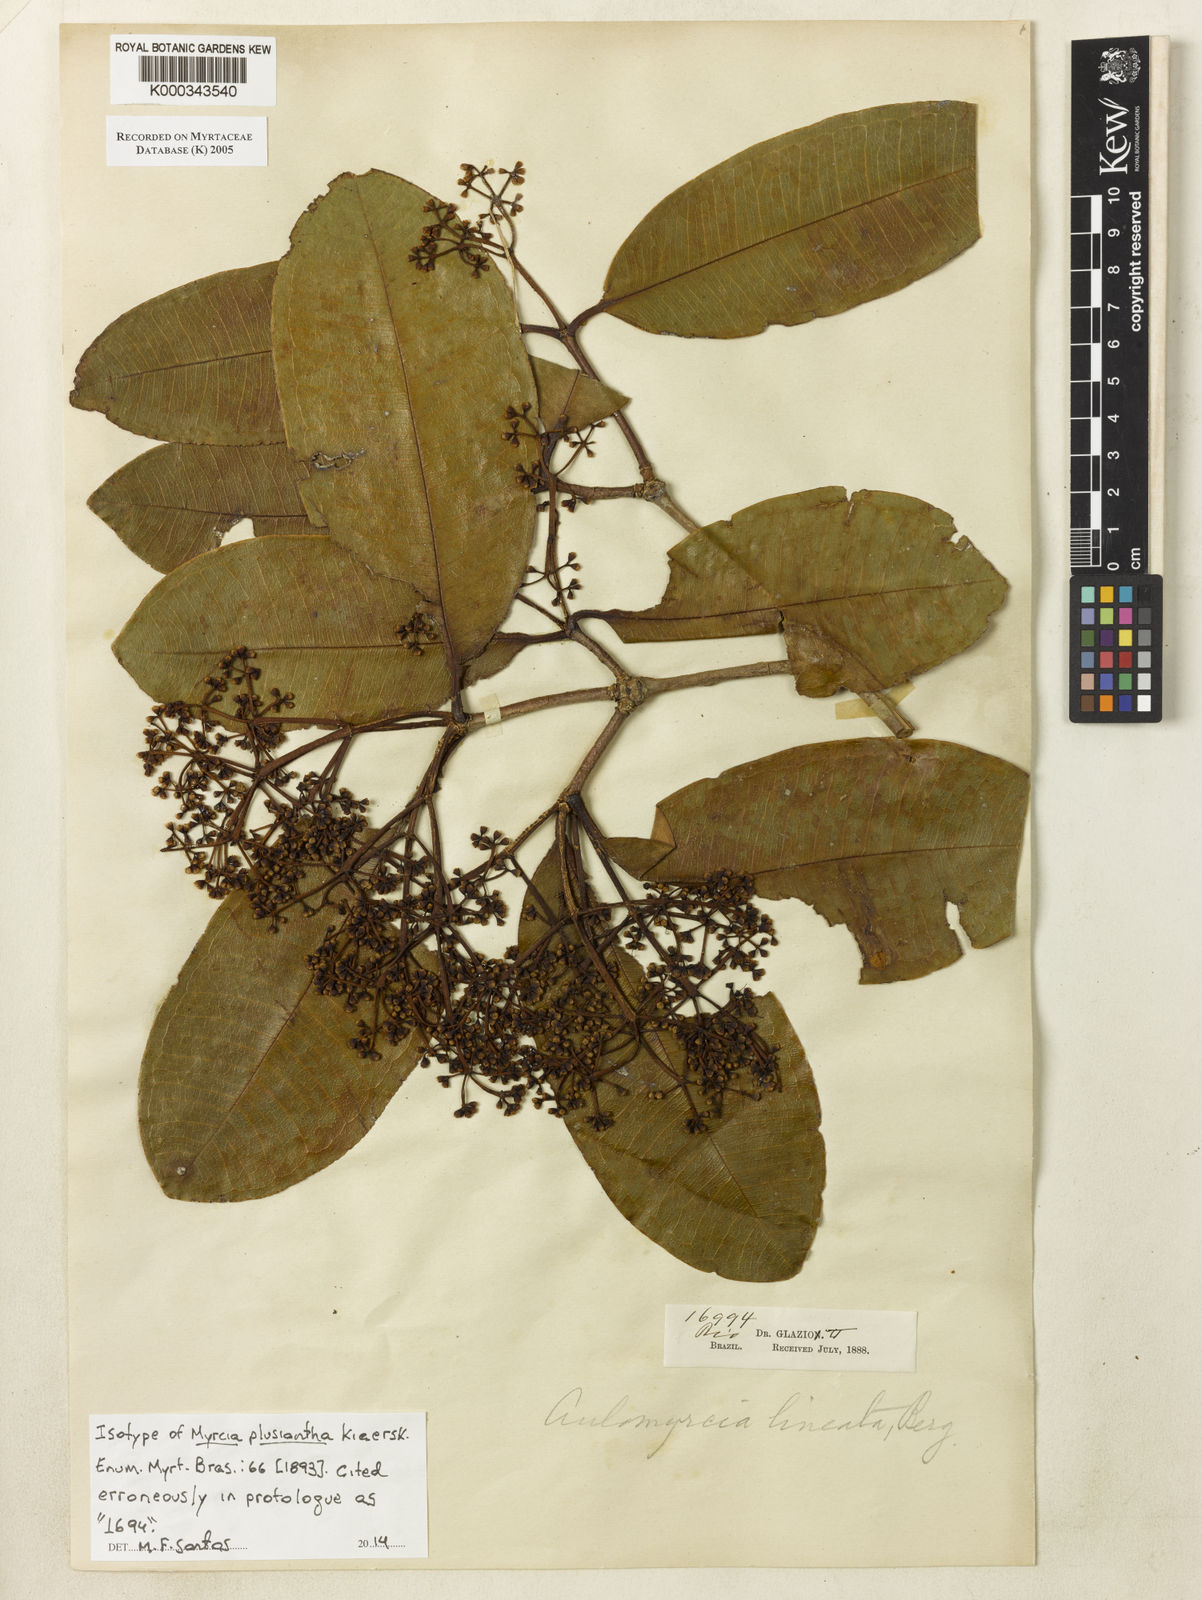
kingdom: Plantae
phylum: Tracheophyta
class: Magnoliopsida
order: Myrtales
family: Myrtaceae
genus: Myrcia
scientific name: Myrcia plusiantha
